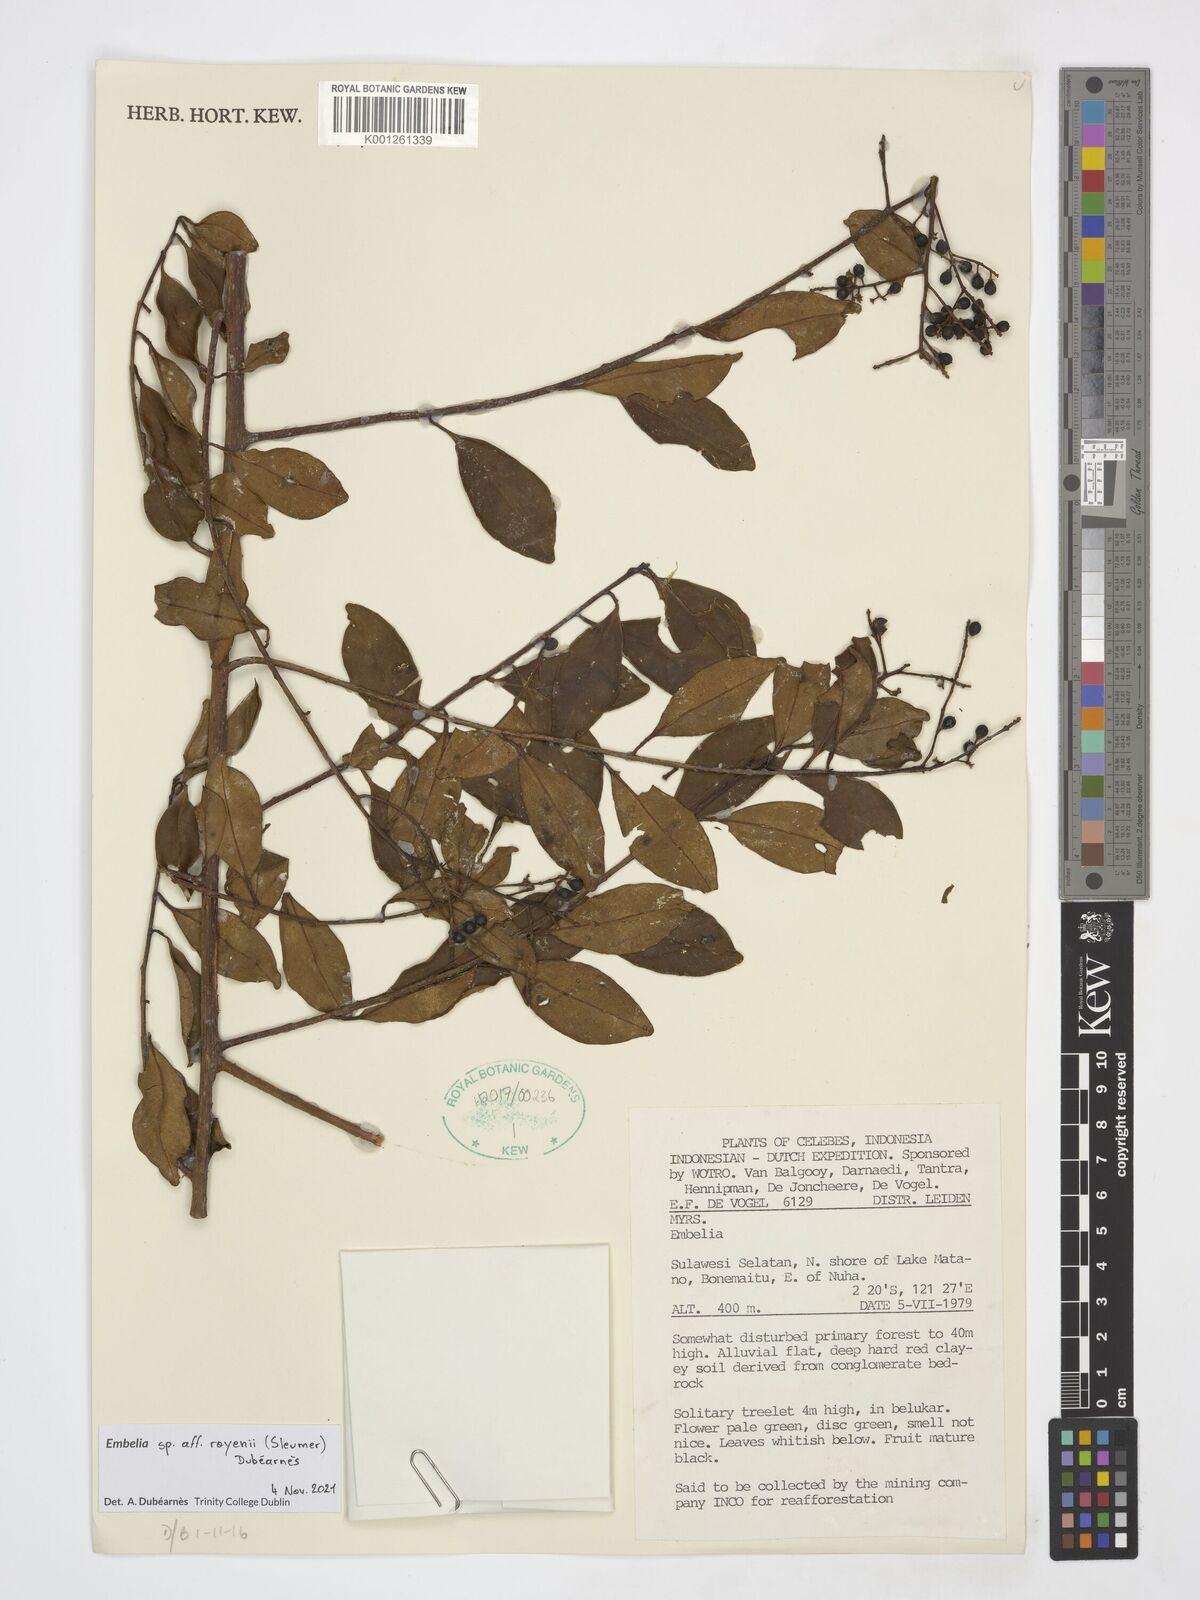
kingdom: Plantae
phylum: Tracheophyta
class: Magnoliopsida
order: Ericales
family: Primulaceae
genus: Embelia
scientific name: Embelia
